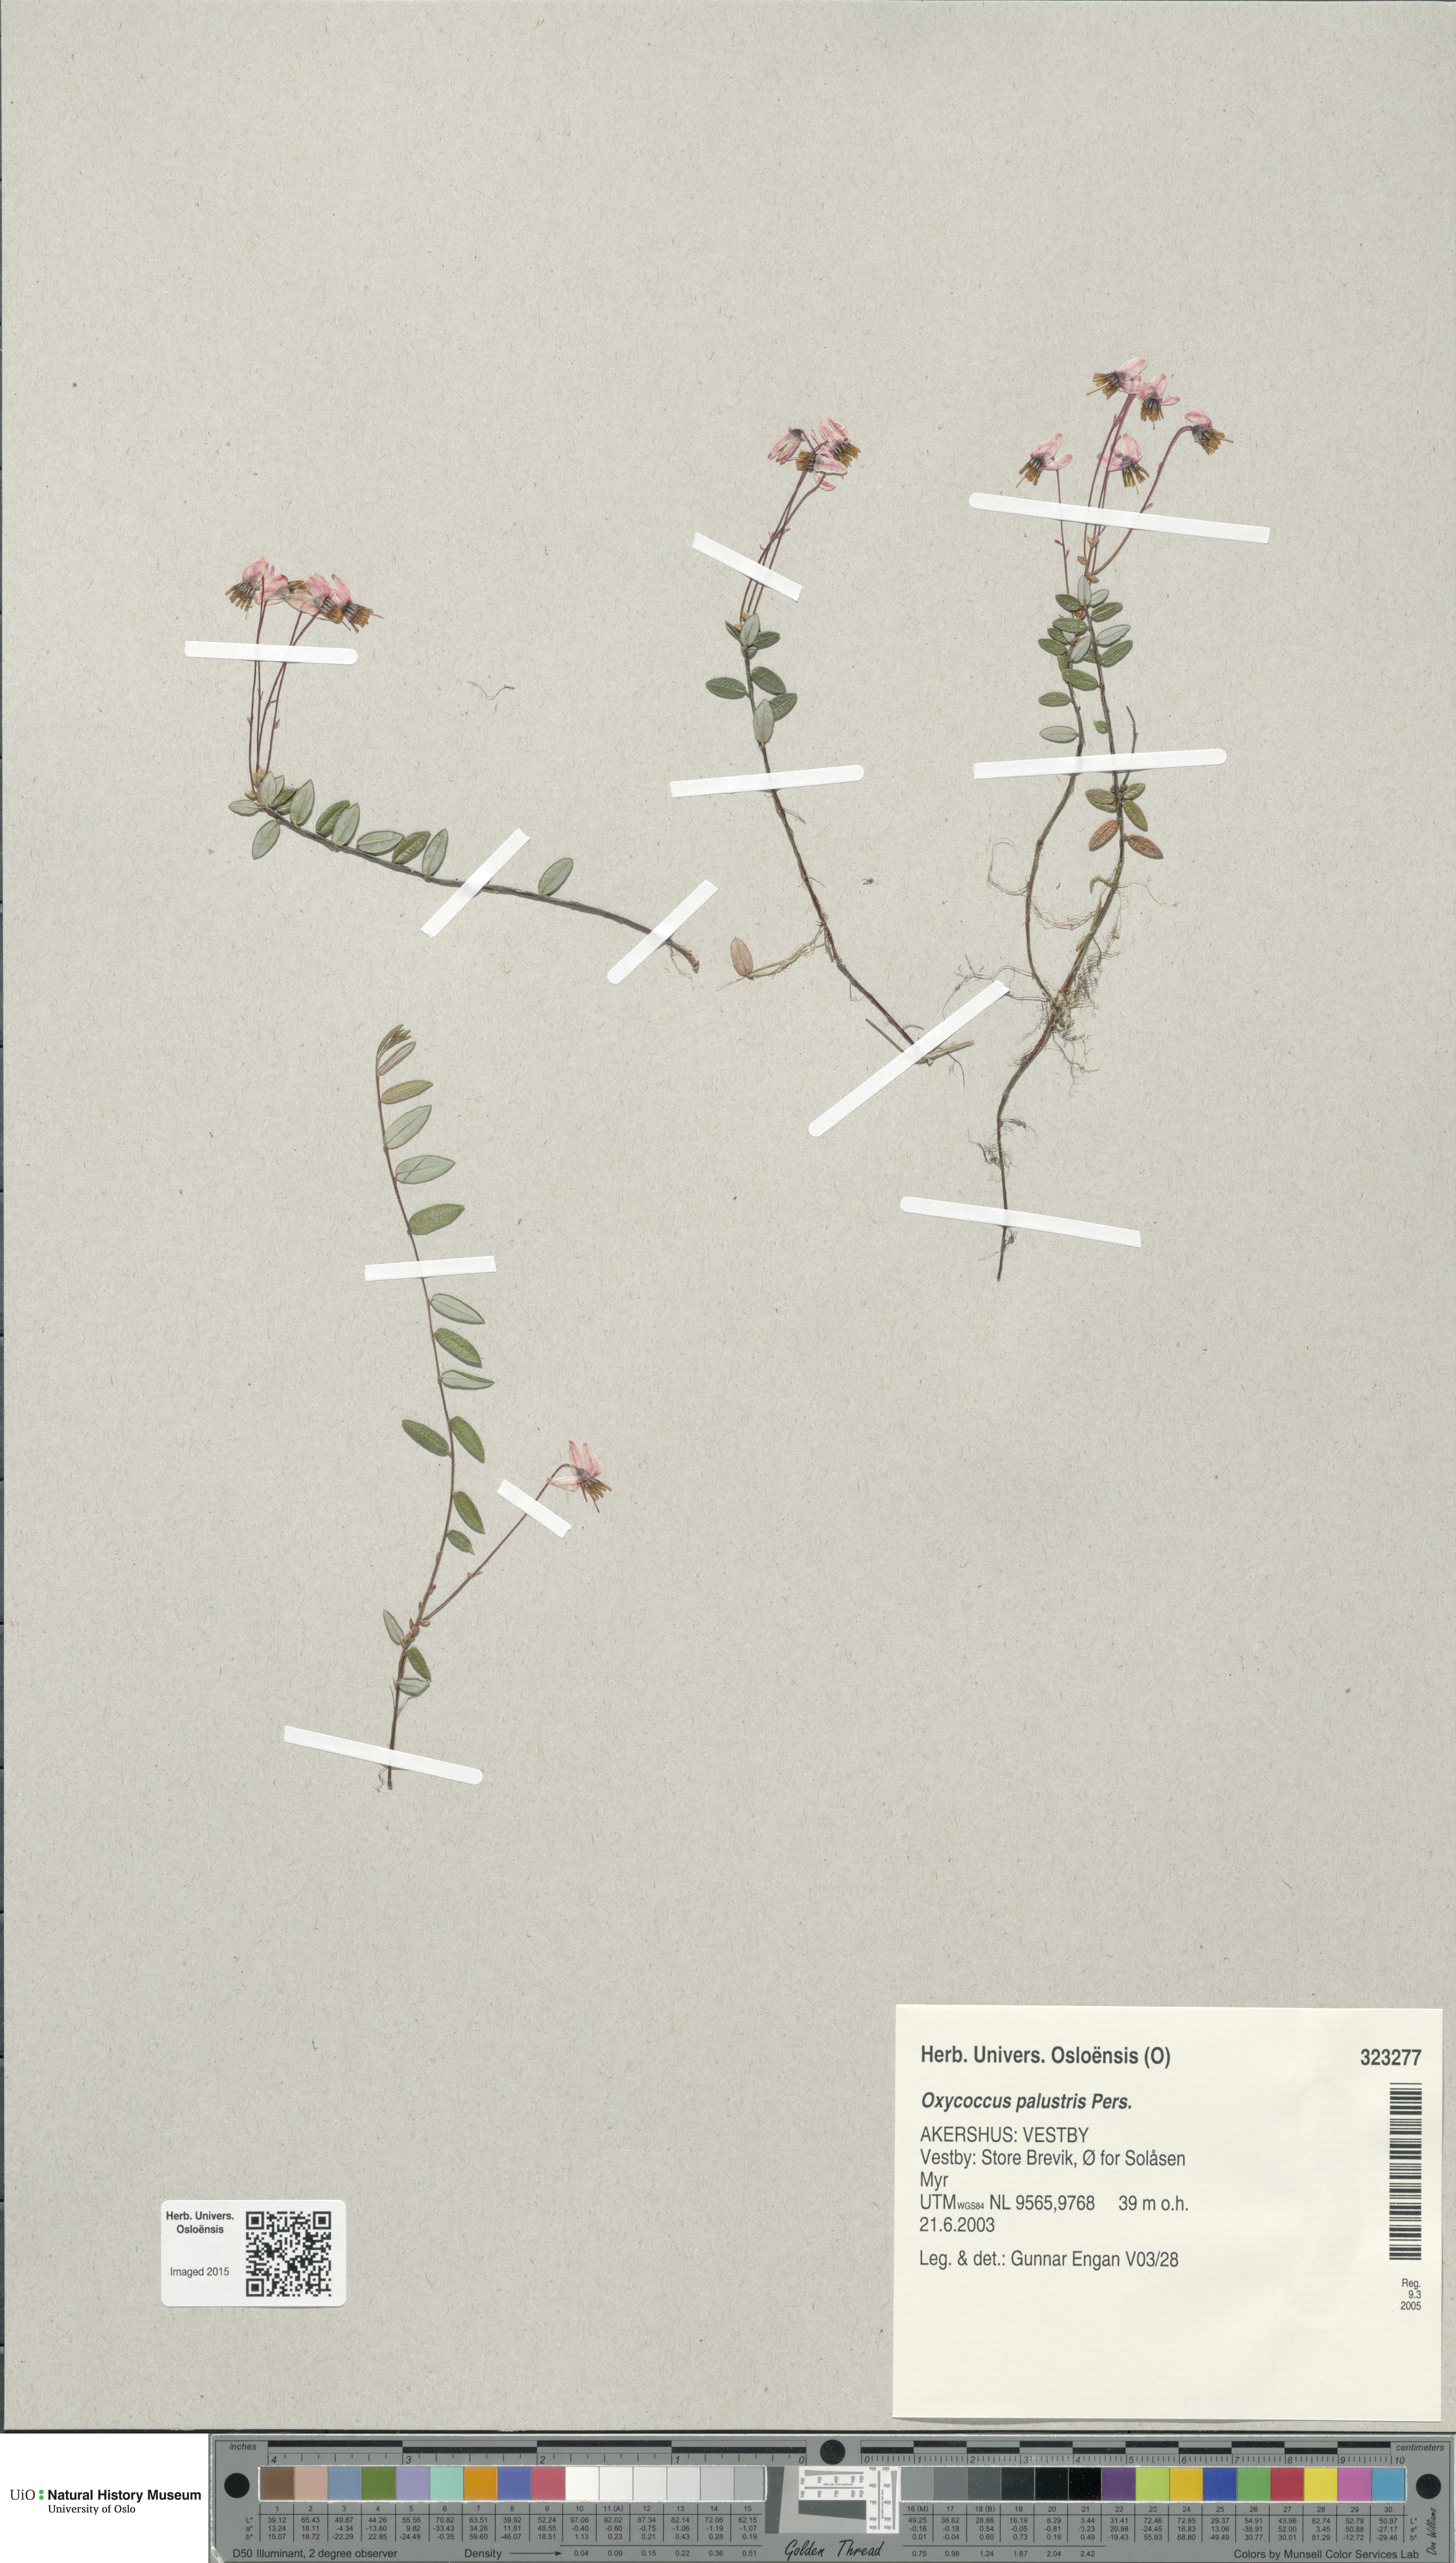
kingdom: Plantae
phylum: Tracheophyta
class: Magnoliopsida
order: Ericales
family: Ericaceae
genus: Vaccinium
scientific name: Vaccinium oxycoccos
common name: Cranberry
